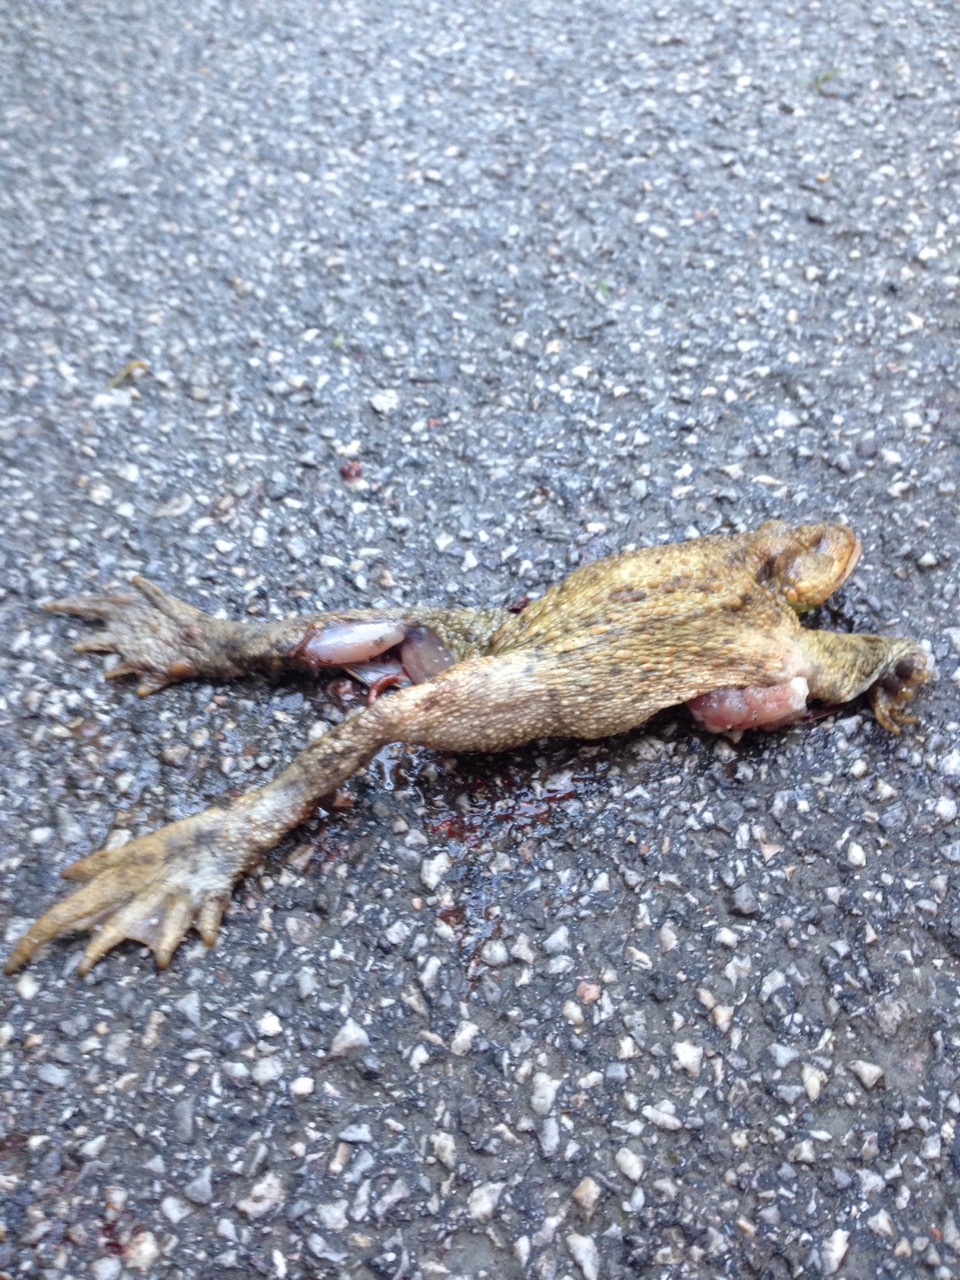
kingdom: Animalia
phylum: Chordata
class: Amphibia
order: Anura
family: Bufonidae
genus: Bufo
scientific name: Bufo bufo
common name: Common toad
